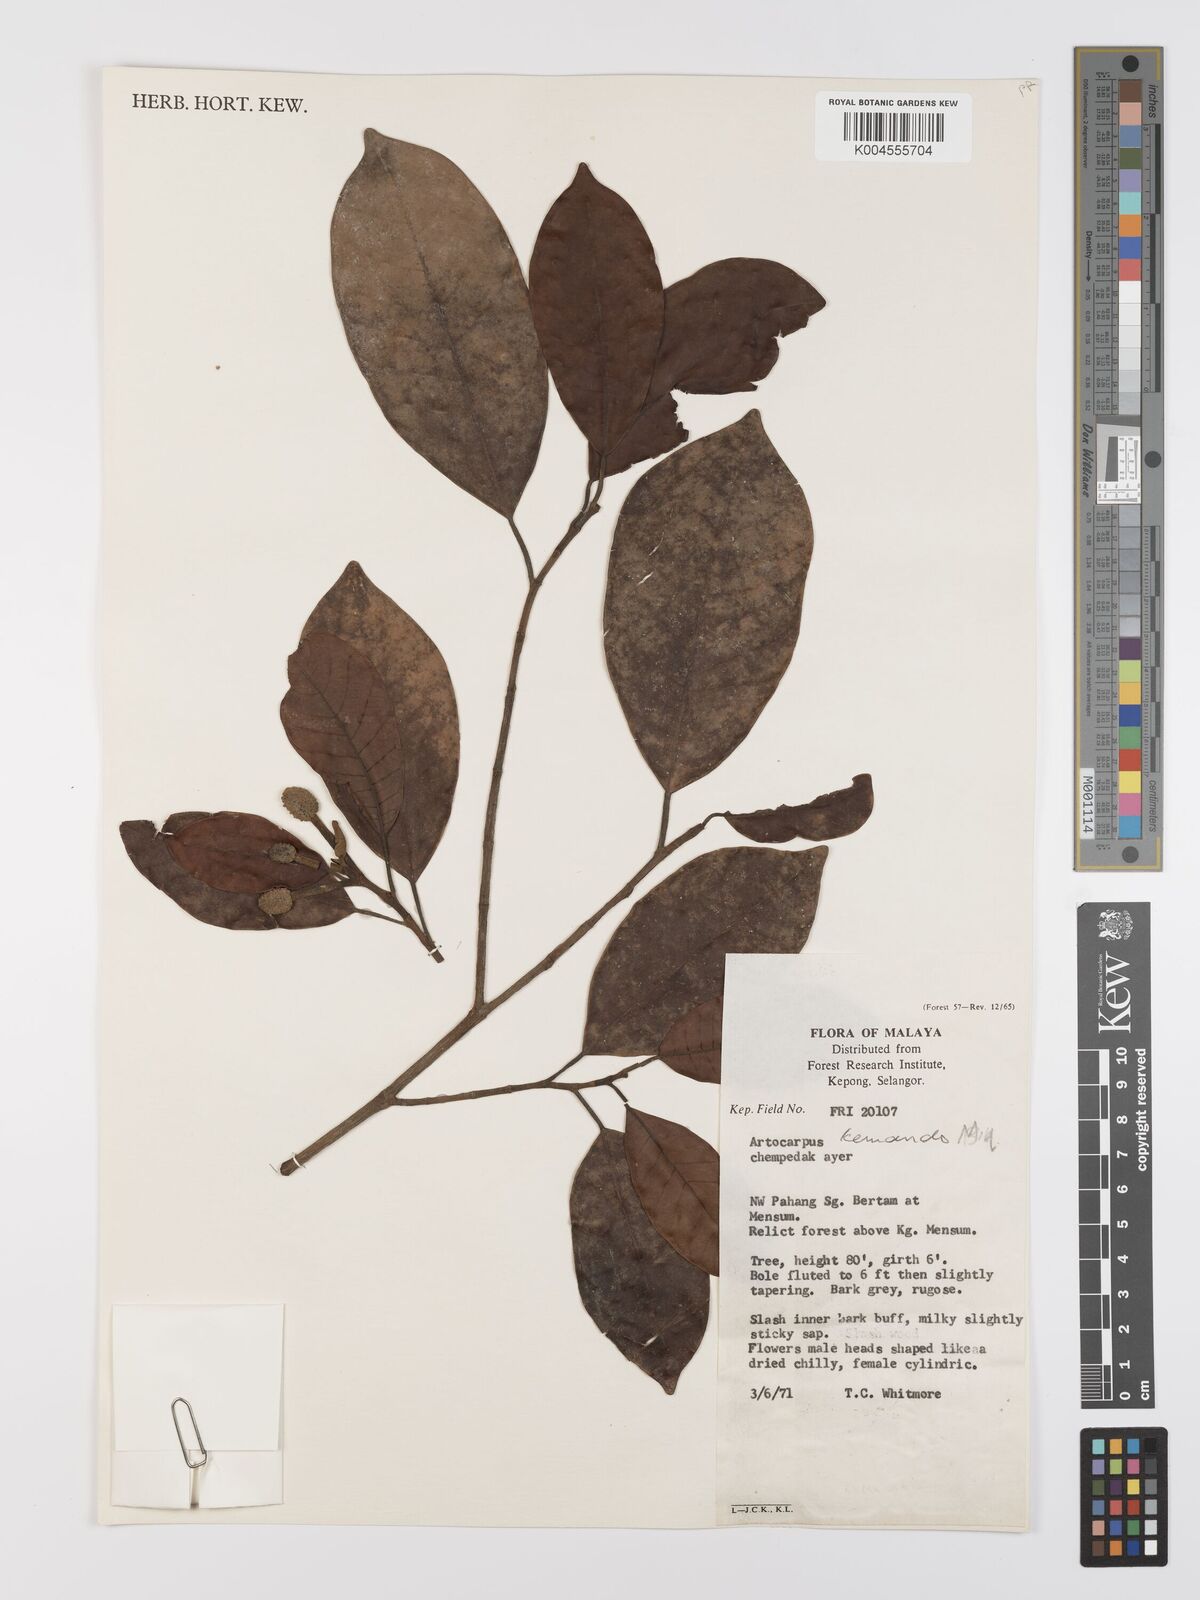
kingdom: Plantae
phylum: Tracheophyta
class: Magnoliopsida
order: Rosales
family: Moraceae
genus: Artocarpus
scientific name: Artocarpus kemando
